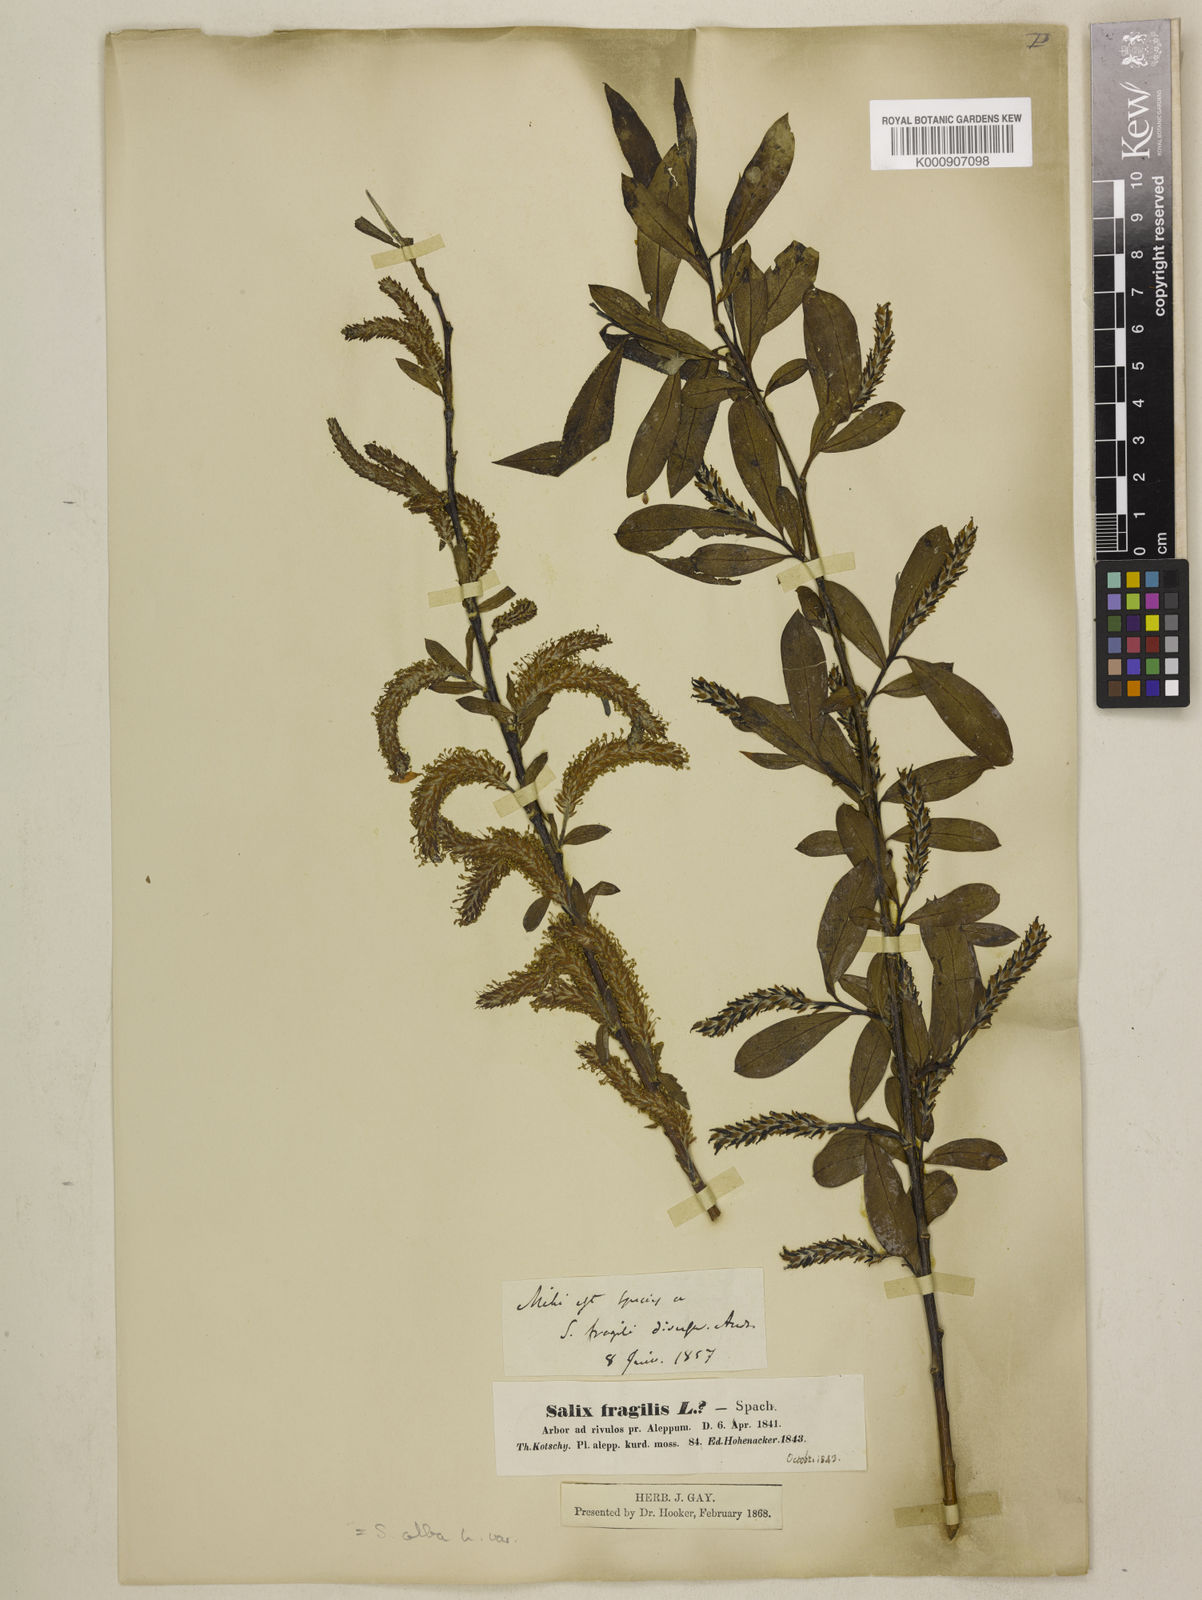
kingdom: Plantae
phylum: Tracheophyta
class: Magnoliopsida
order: Malpighiales
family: Salicaceae
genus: Salix
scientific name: Salix excelsa
